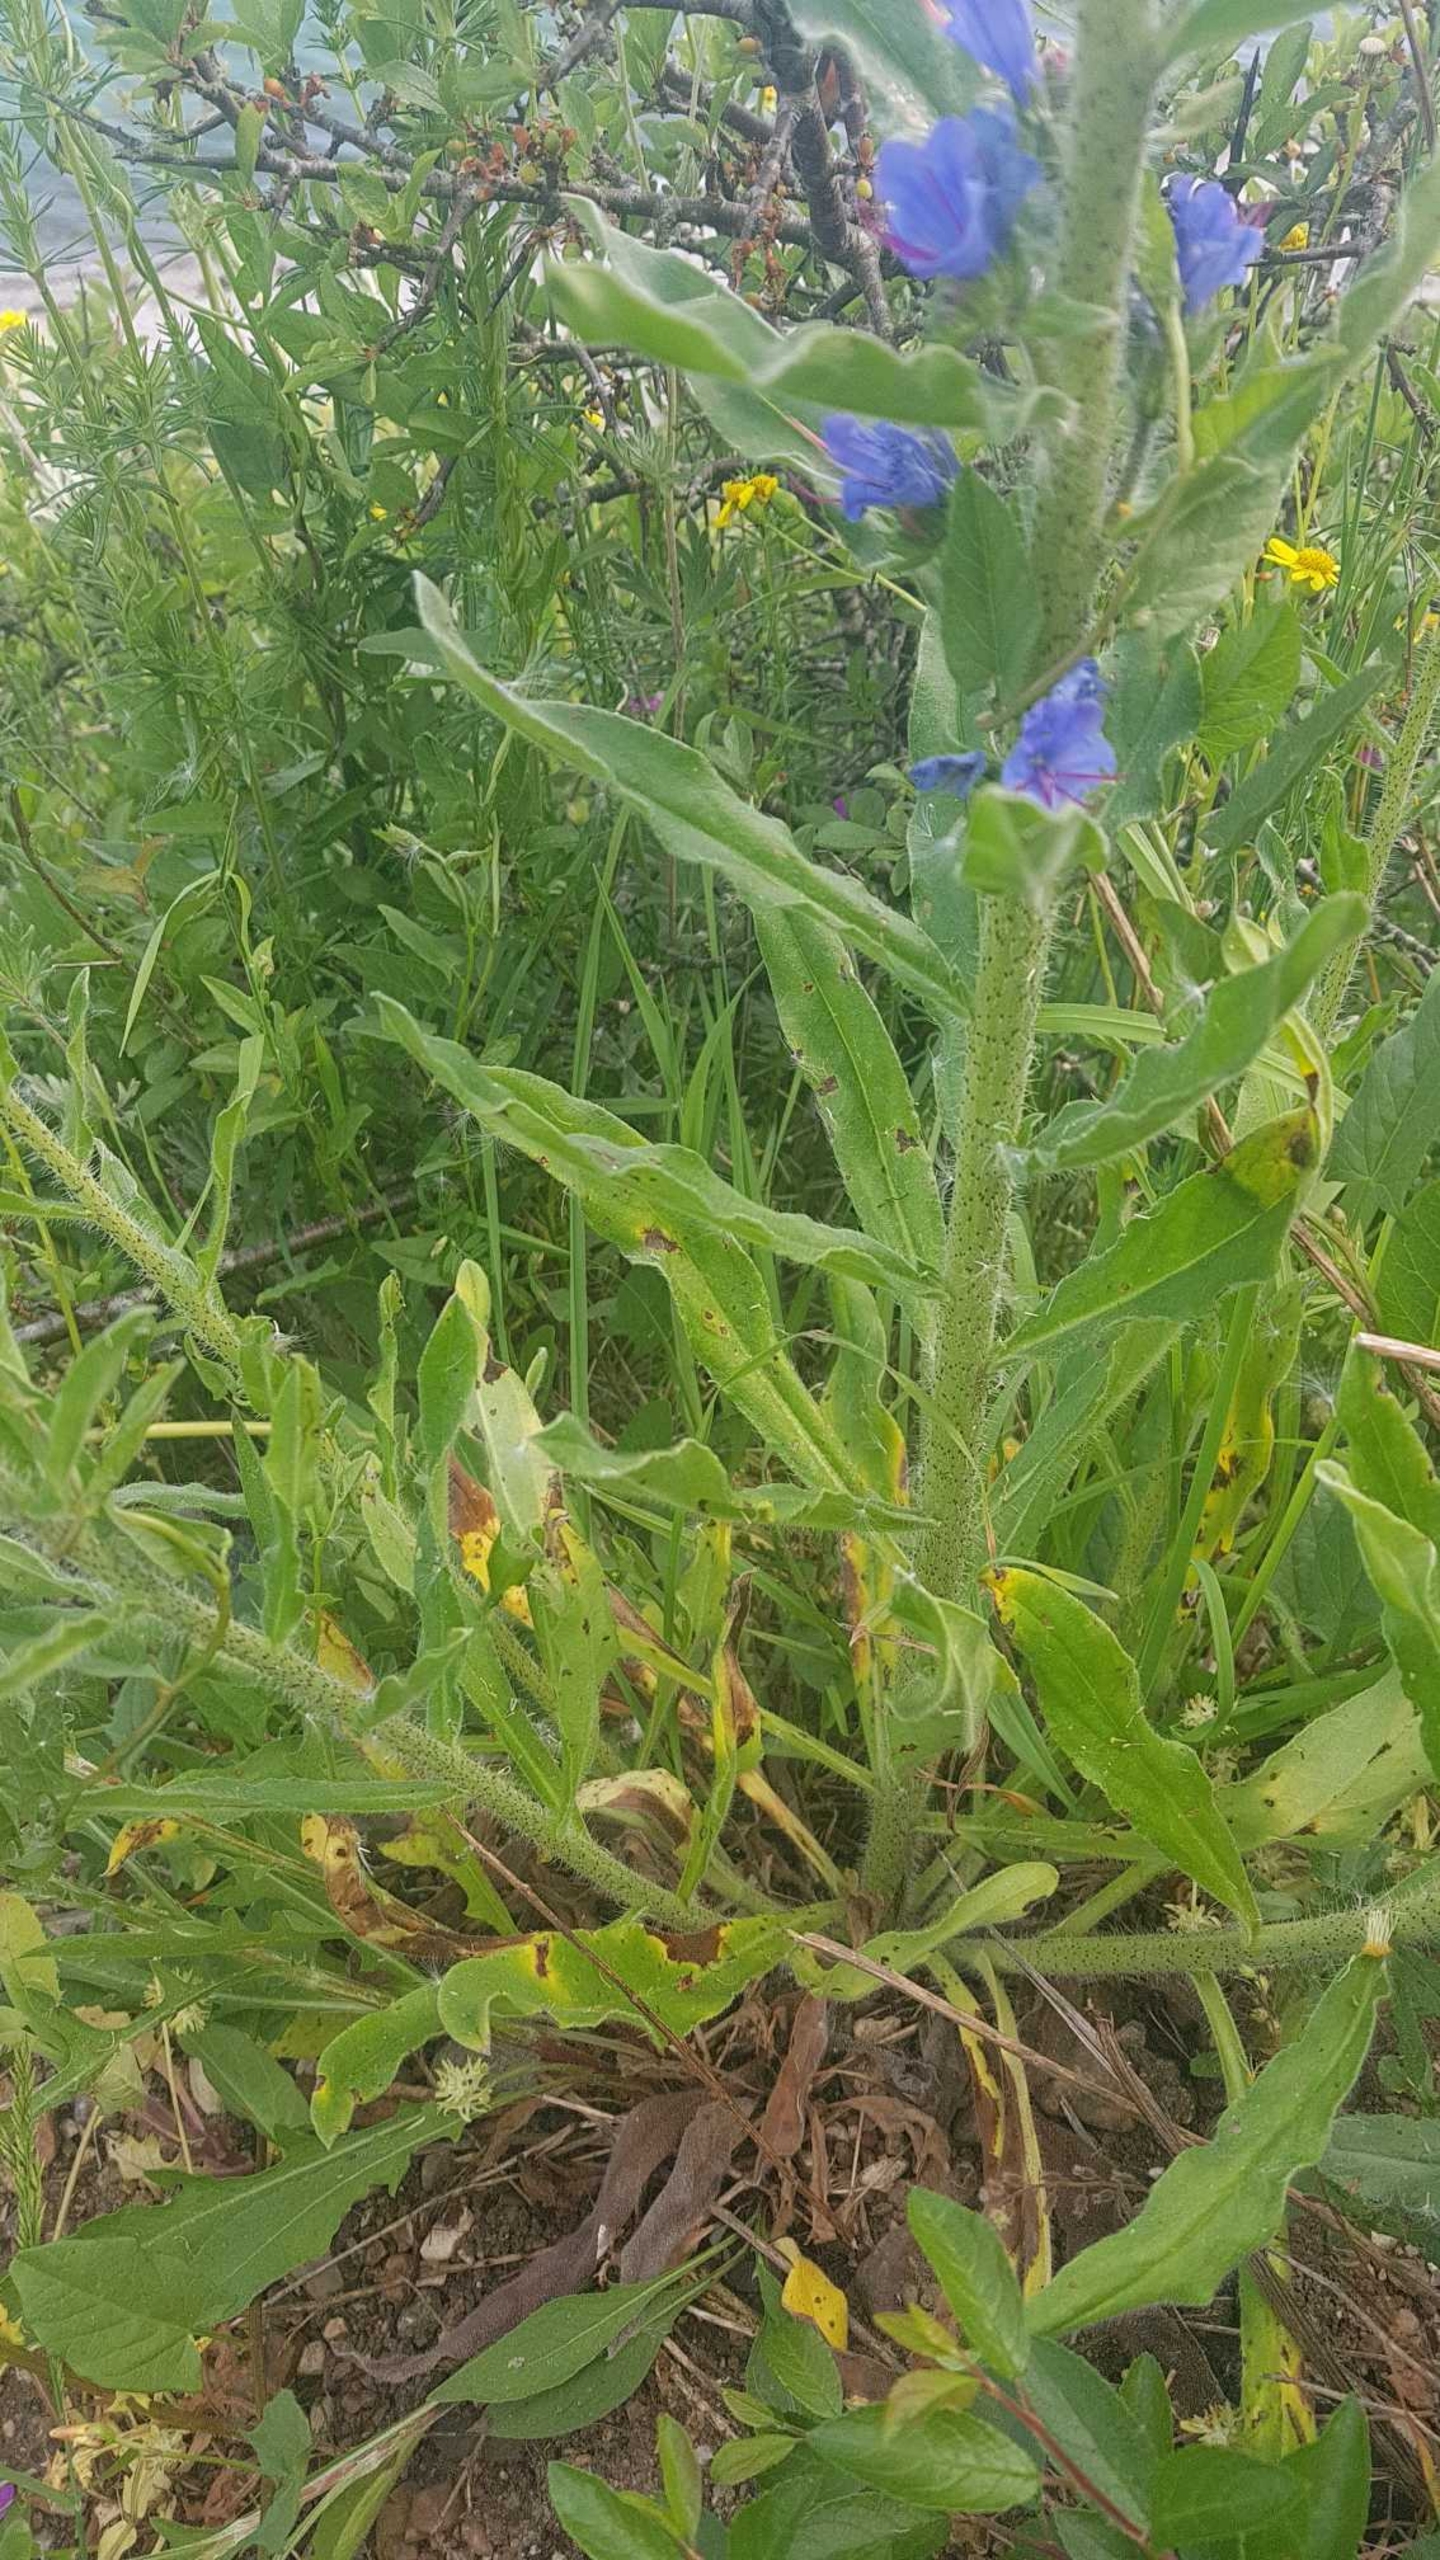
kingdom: Plantae
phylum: Tracheophyta
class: Magnoliopsida
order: Boraginales
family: Boraginaceae
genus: Echium
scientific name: Echium vulgare
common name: Slangehoved
